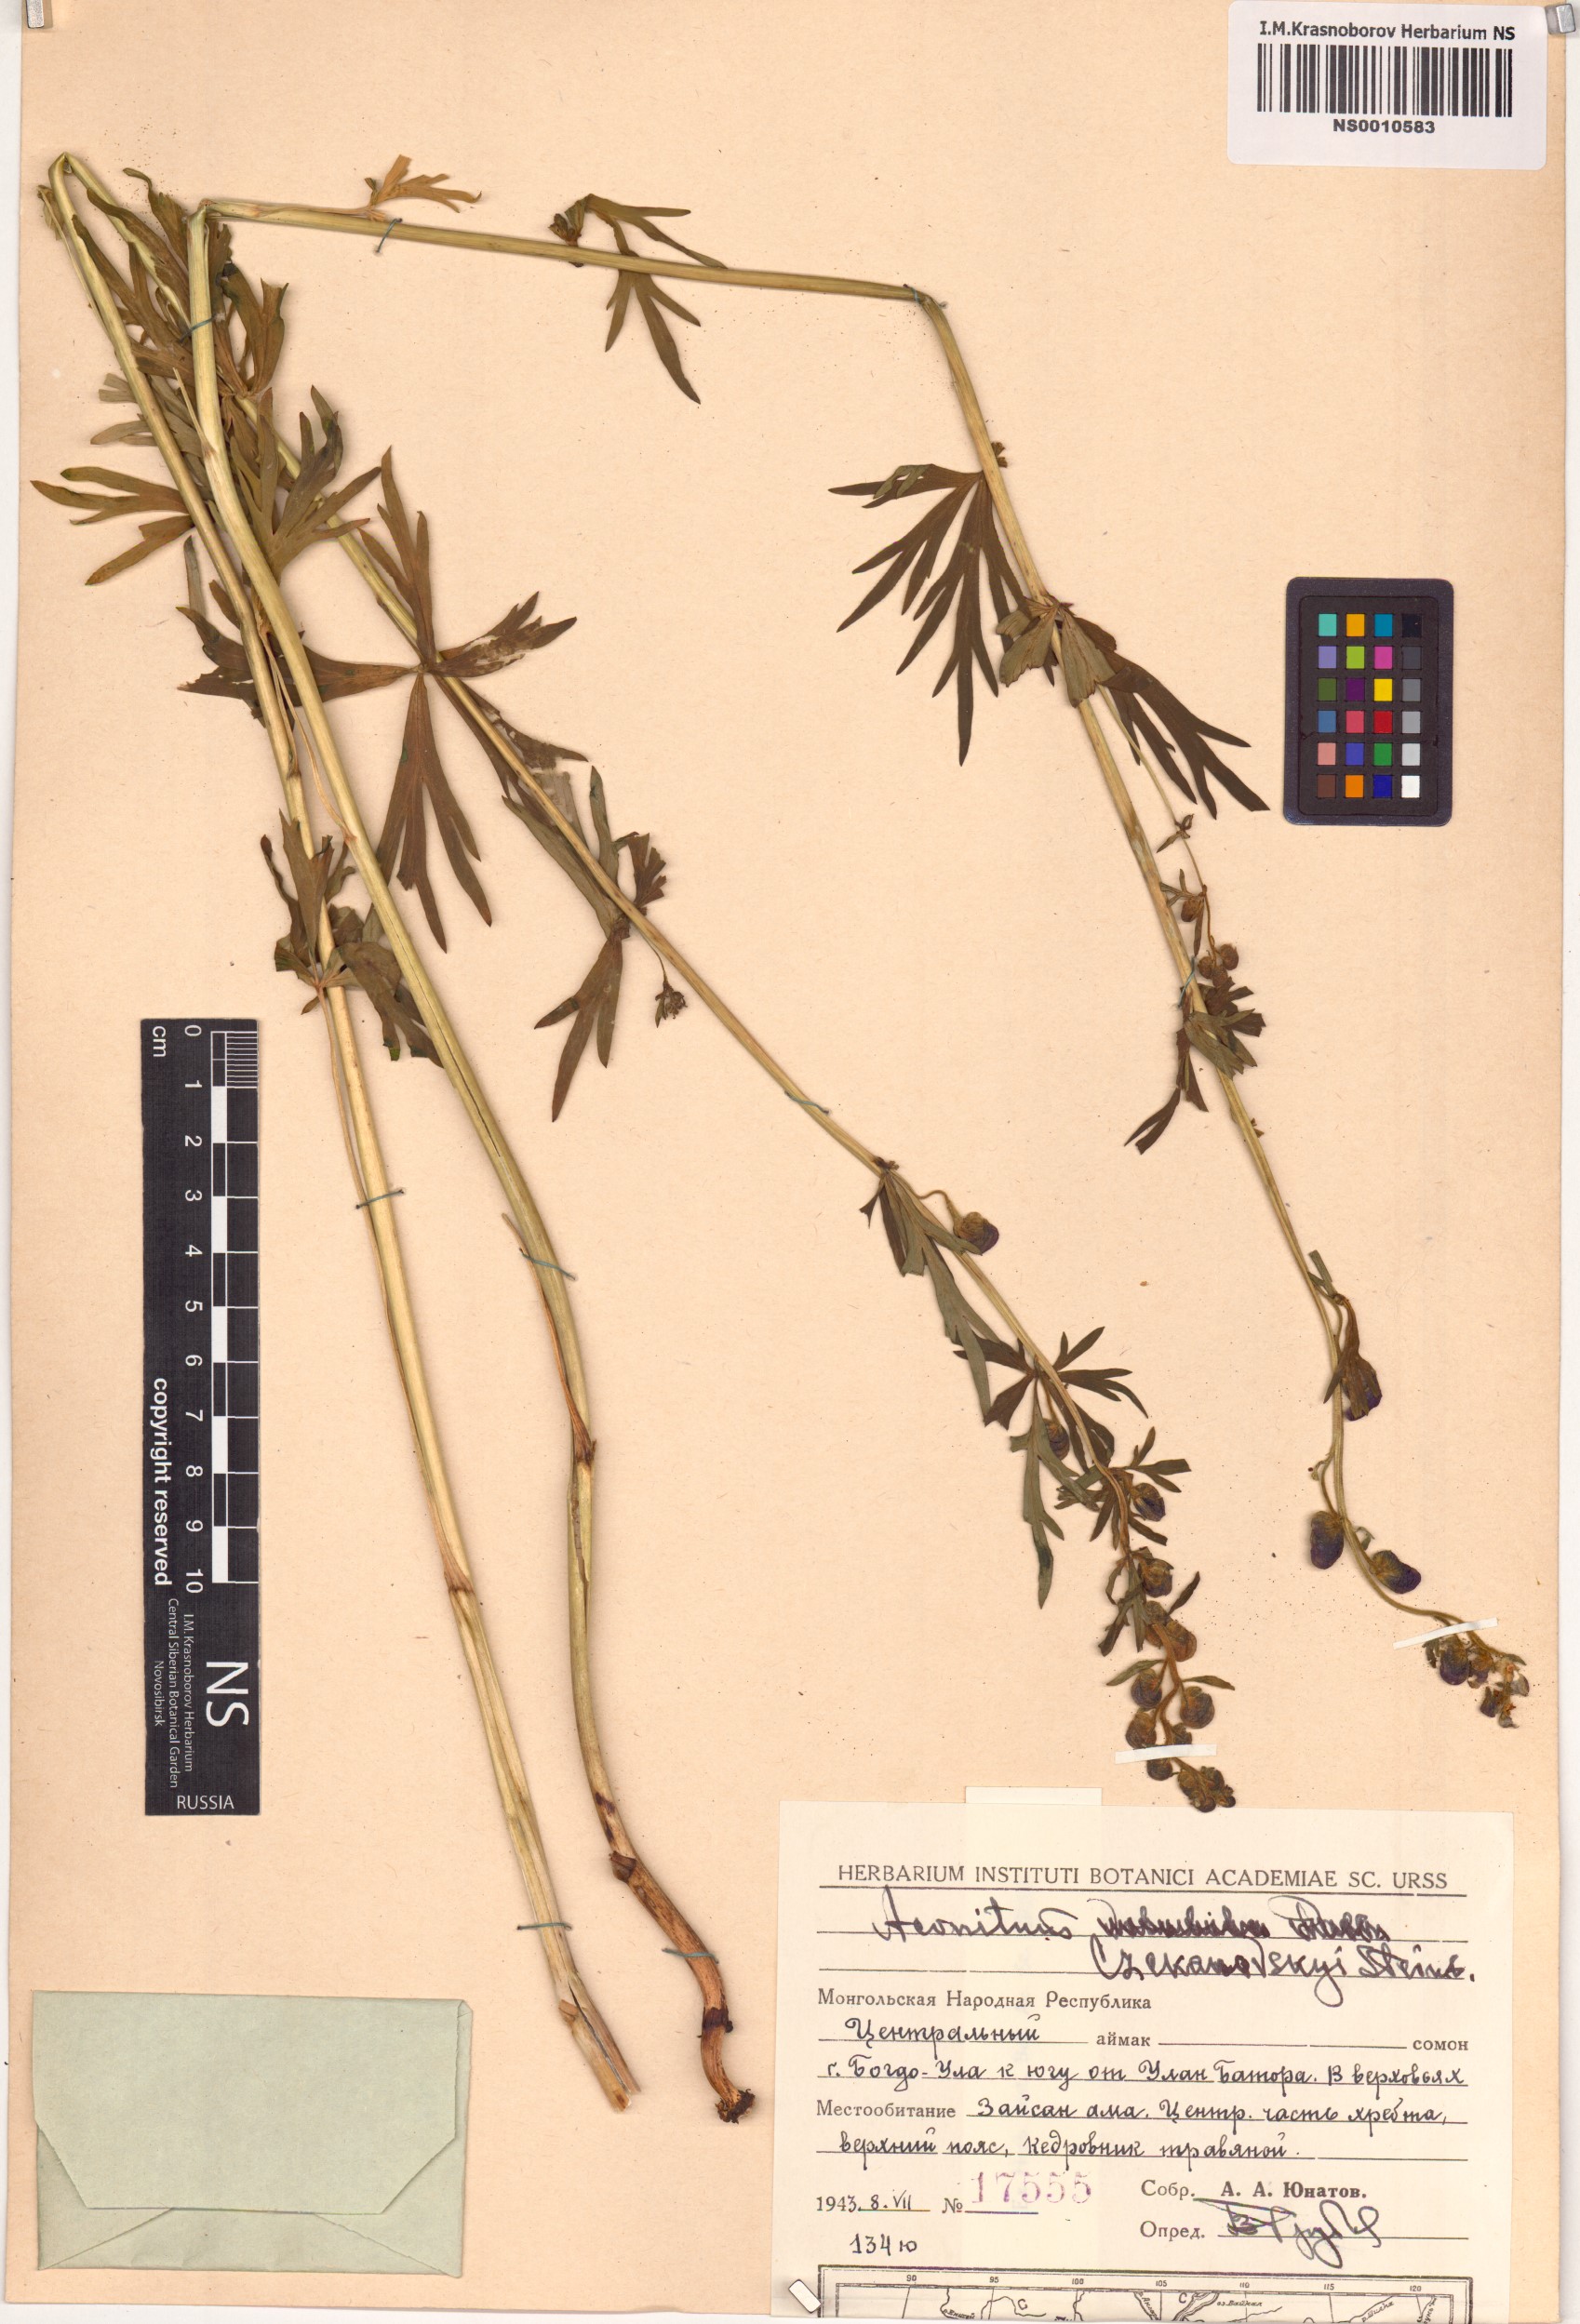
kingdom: Plantae
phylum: Tracheophyta
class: Magnoliopsida
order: Ranunculales
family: Ranunculaceae
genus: Aconitum
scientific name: Aconitum ambiguum
